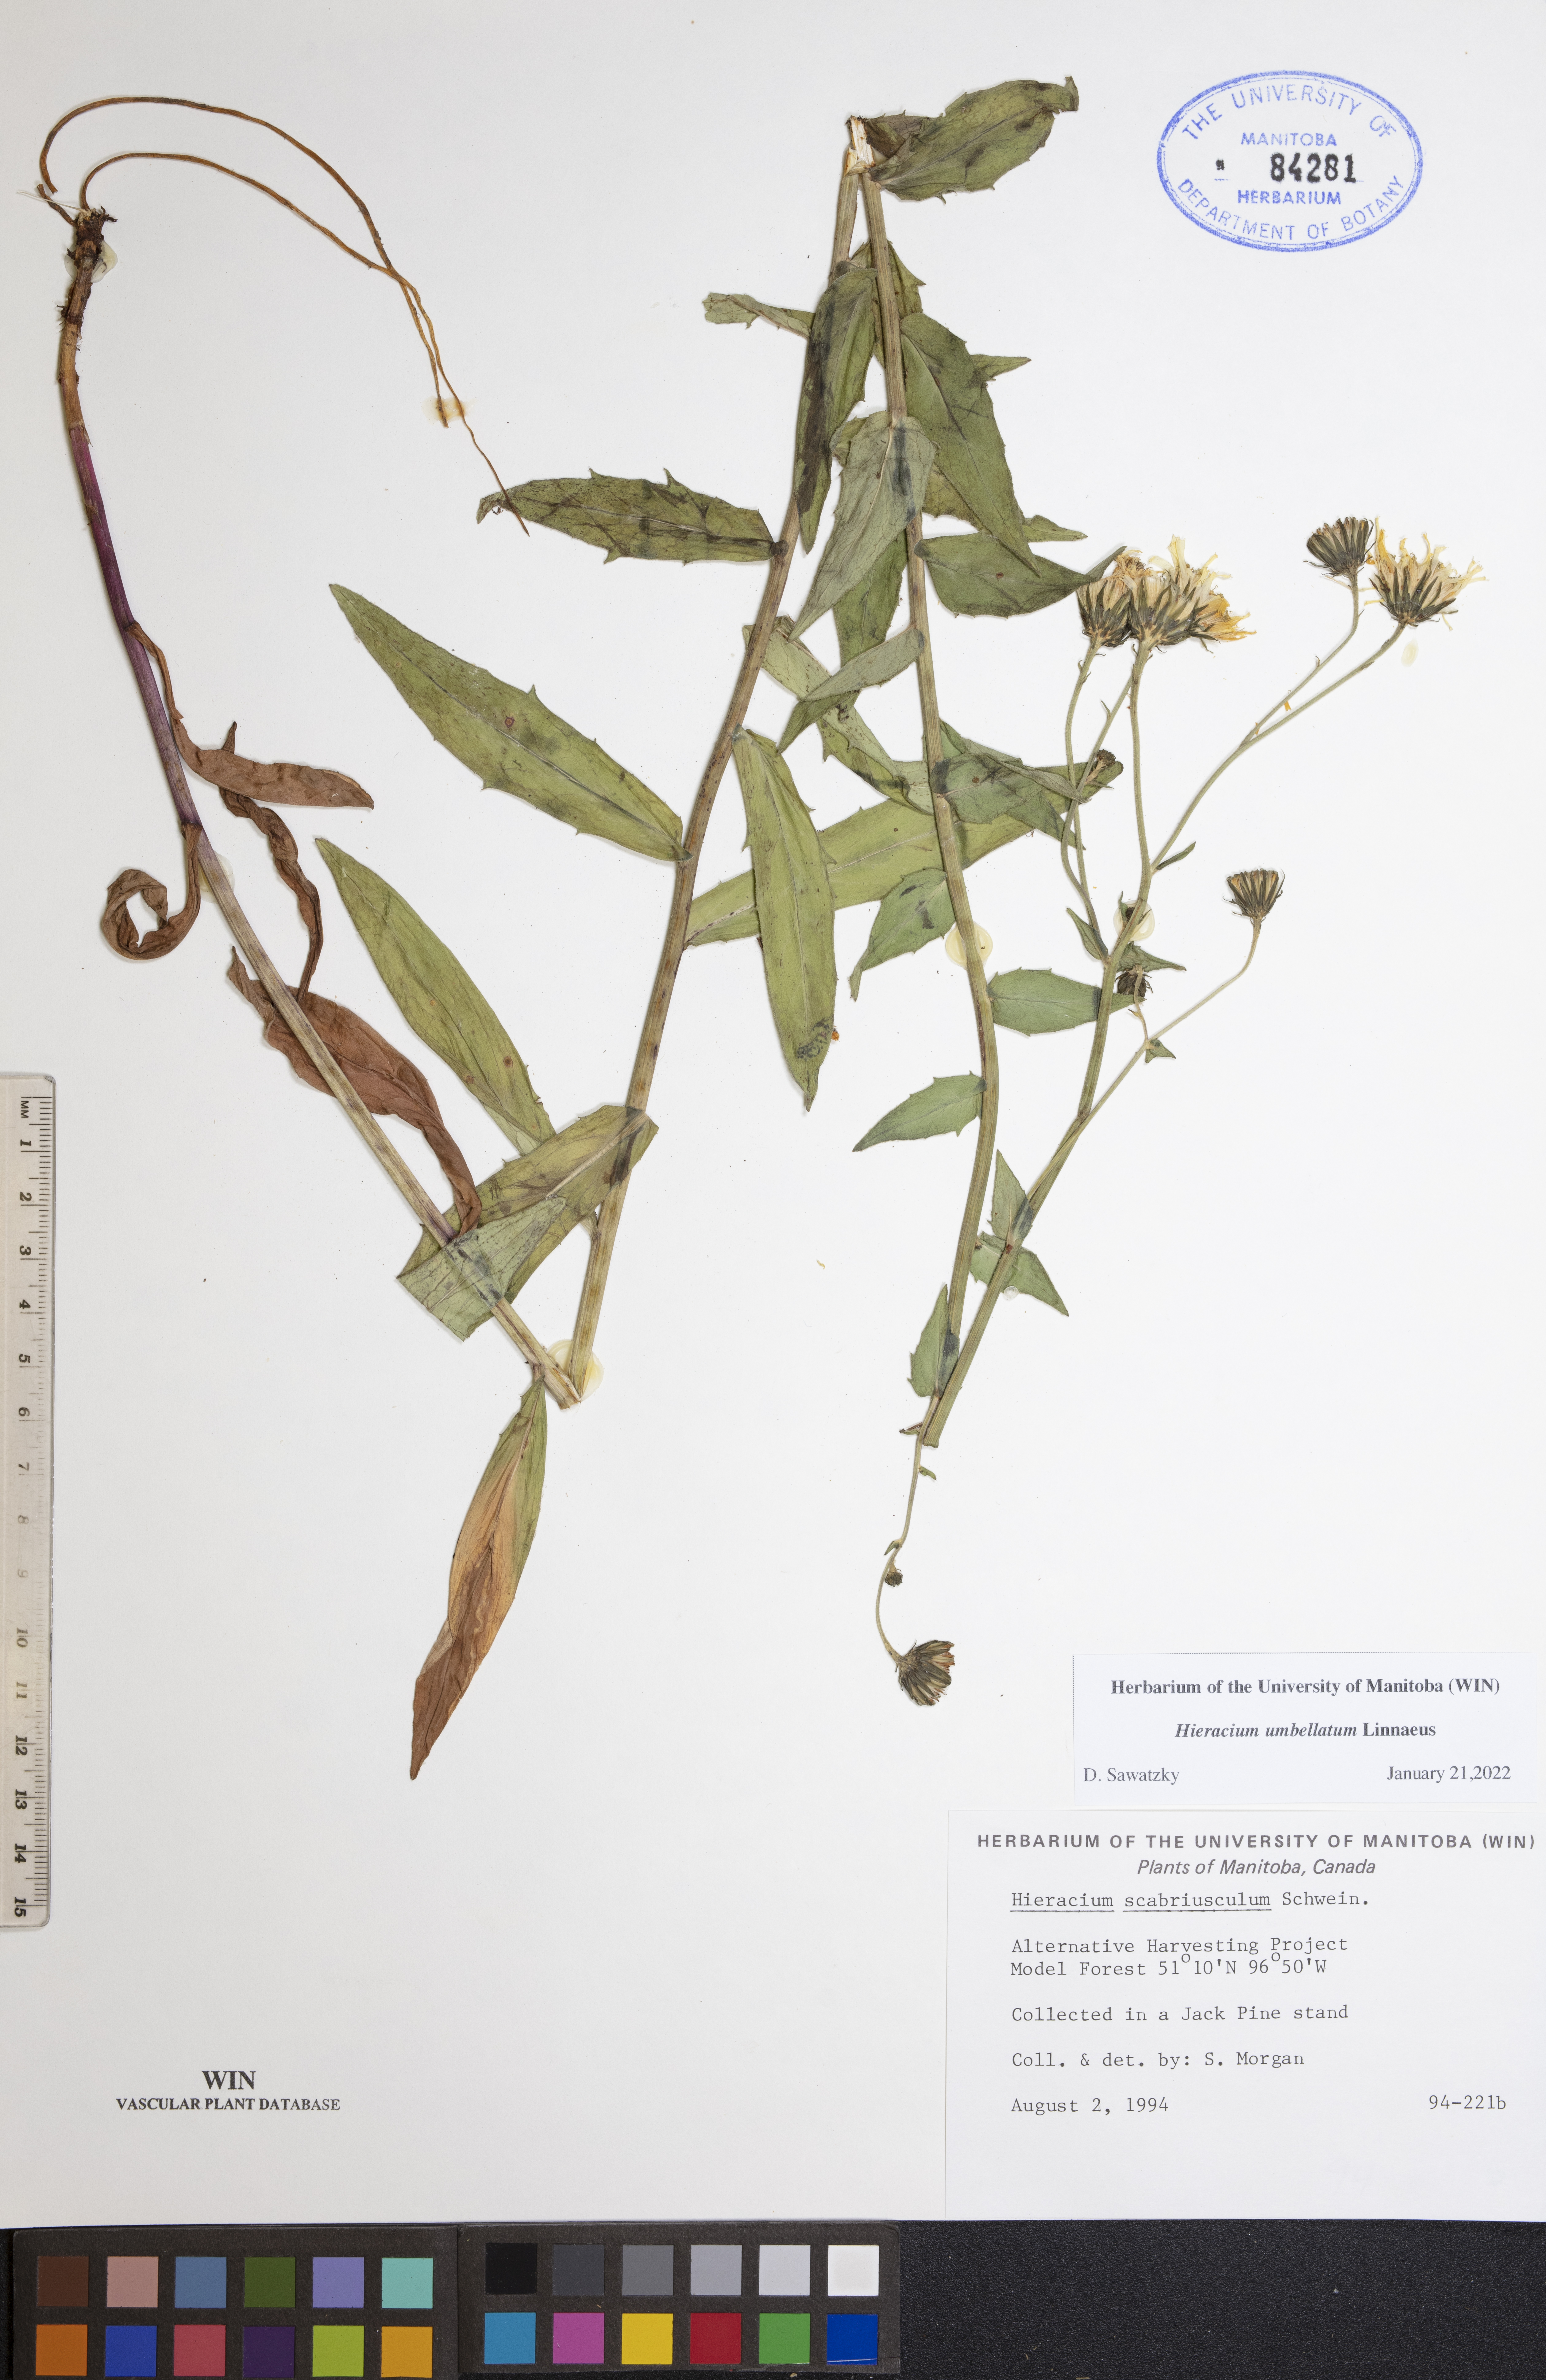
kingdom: Plantae
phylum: Tracheophyta
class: Magnoliopsida
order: Asterales
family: Asteraceae
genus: Hieracium
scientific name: Hieracium umbellatum
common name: Northern hawkweed
